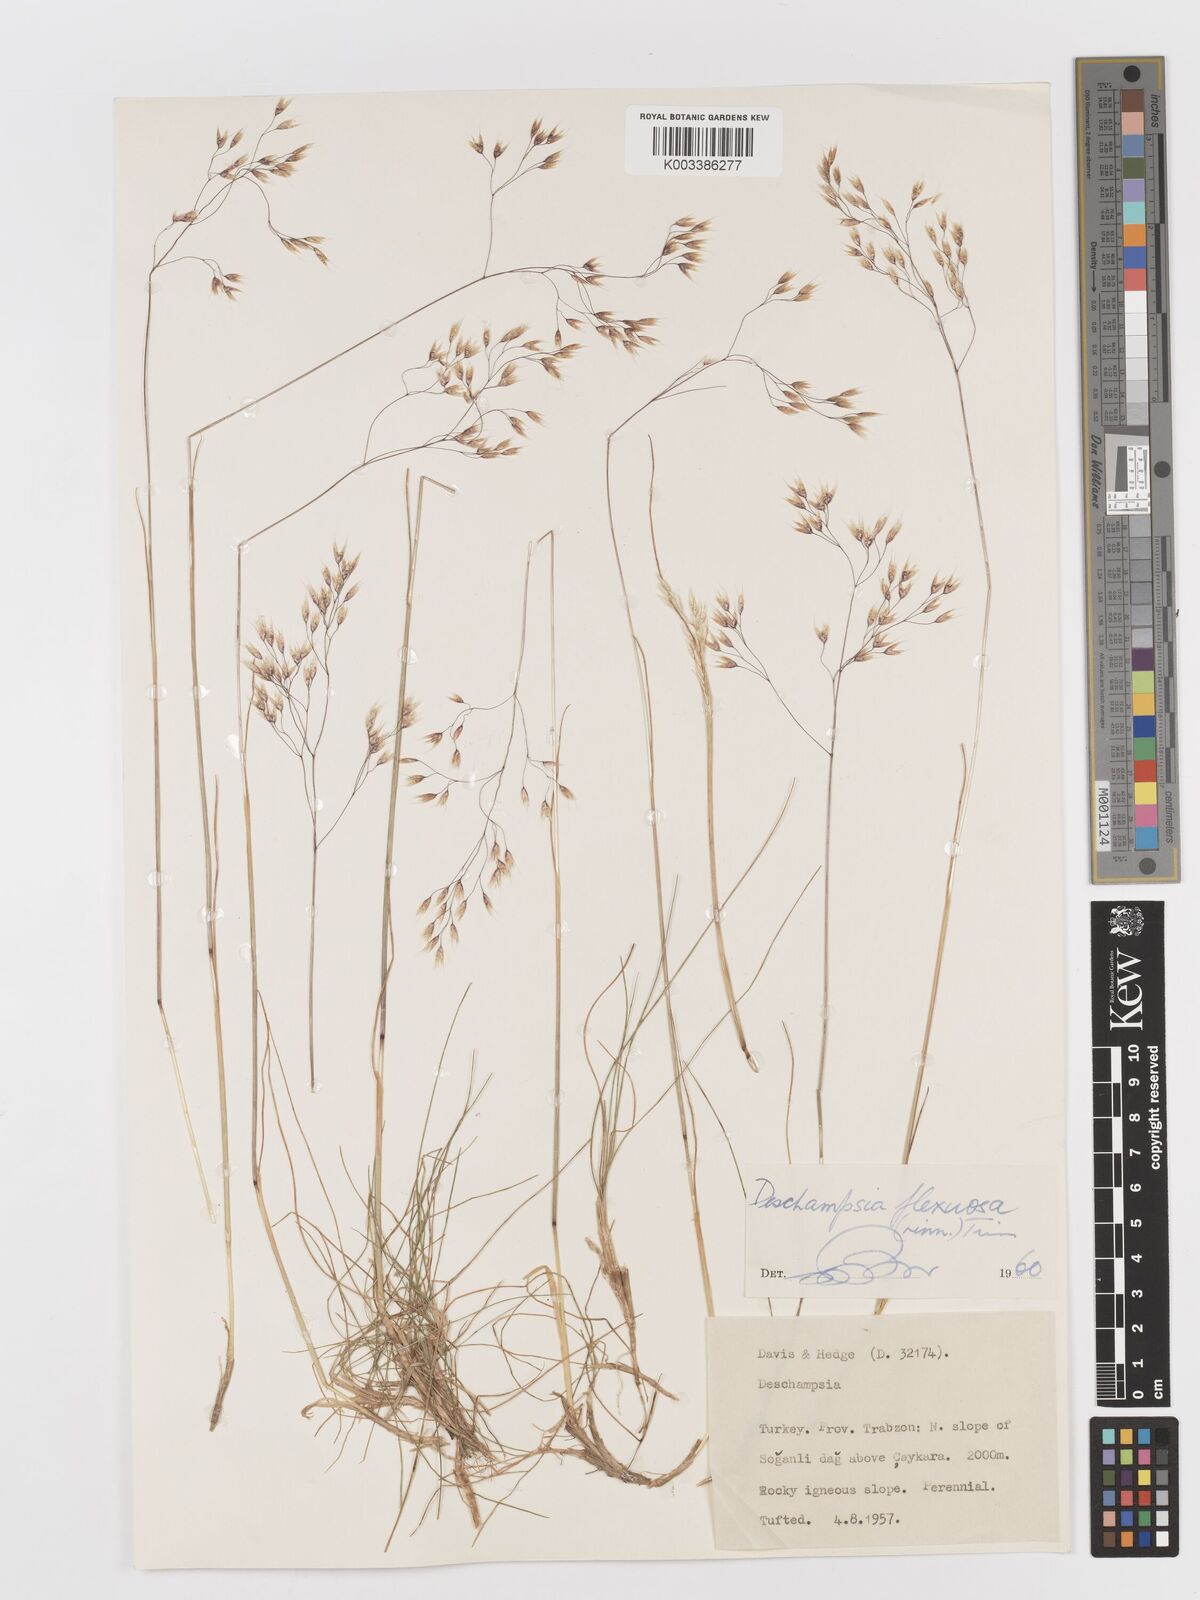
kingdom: Plantae
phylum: Tracheophyta
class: Liliopsida
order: Poales
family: Poaceae
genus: Avenella
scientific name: Avenella flexuosa
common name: Wavy hairgrass
